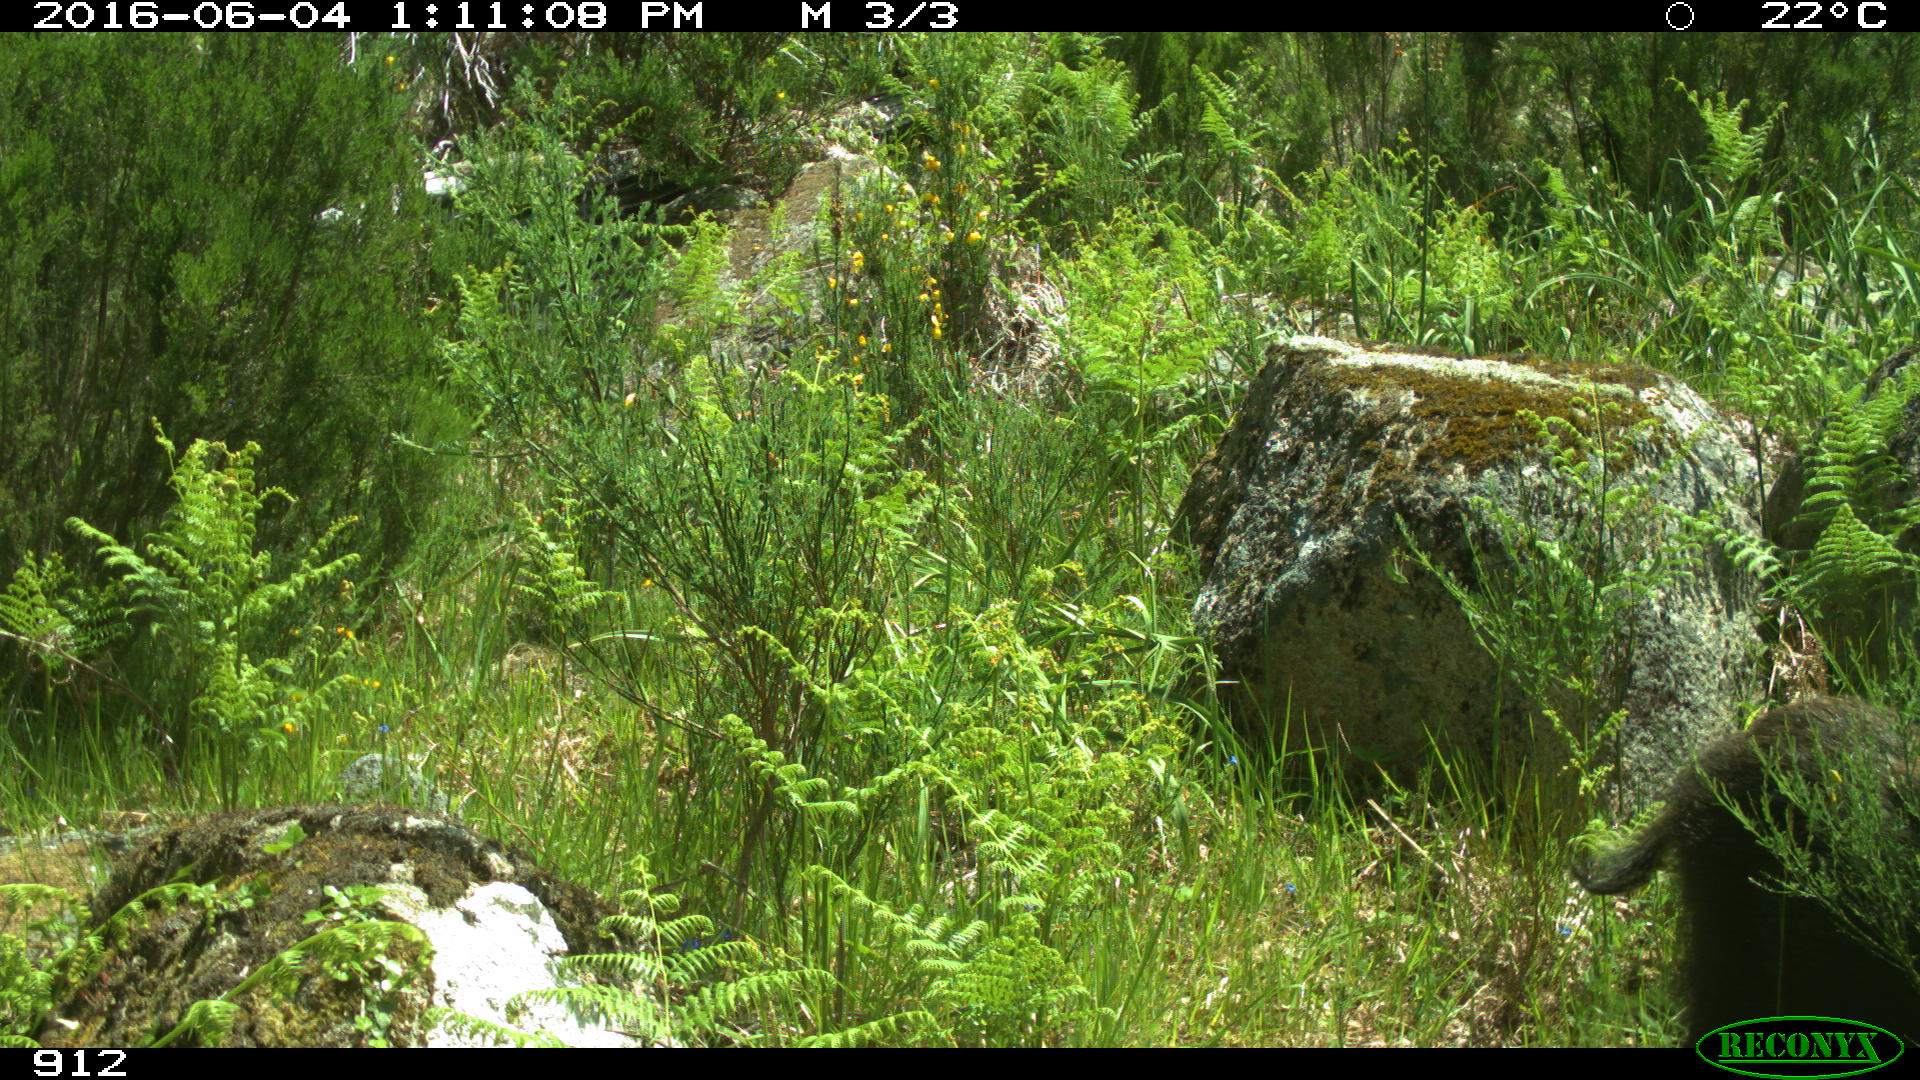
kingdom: Animalia
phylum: Chordata
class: Mammalia
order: Artiodactyla
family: Suidae
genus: Sus
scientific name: Sus scrofa
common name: Wild boar
